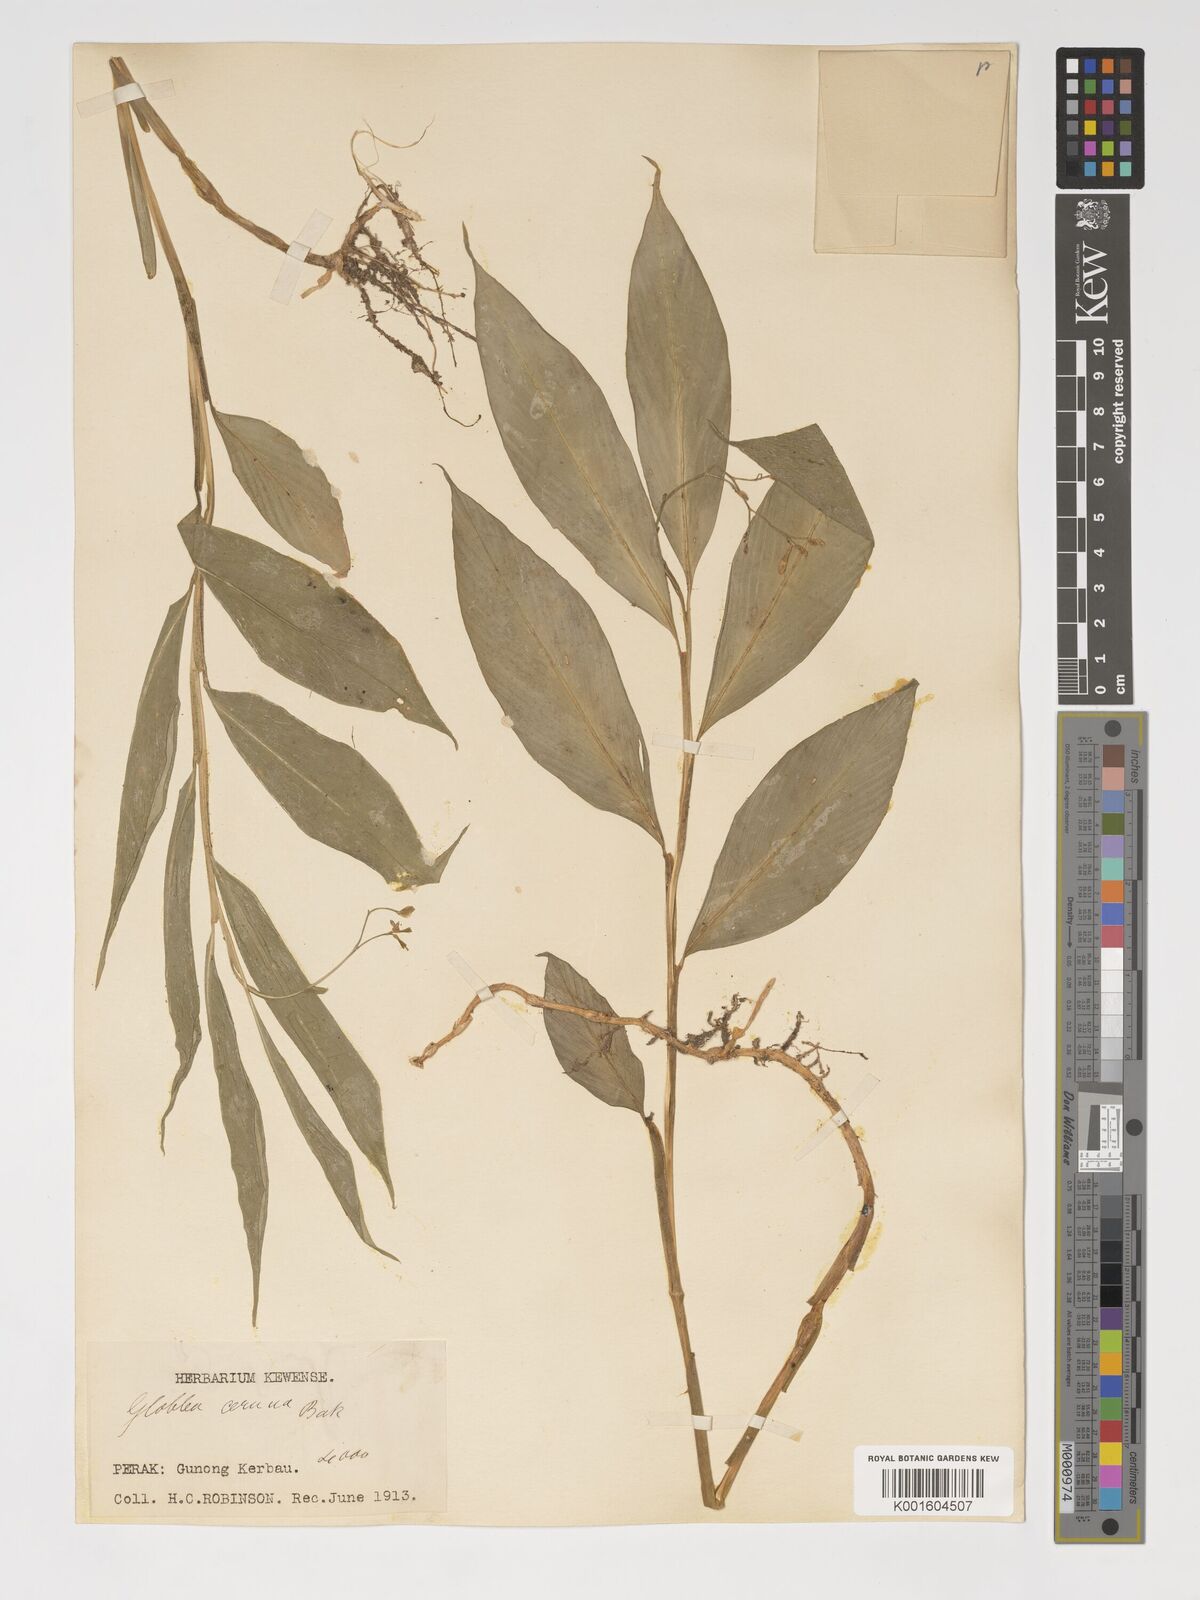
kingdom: Plantae
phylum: Tracheophyta
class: Liliopsida
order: Zingiberales
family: Zingiberaceae
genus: Globba
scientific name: Globba cernua
